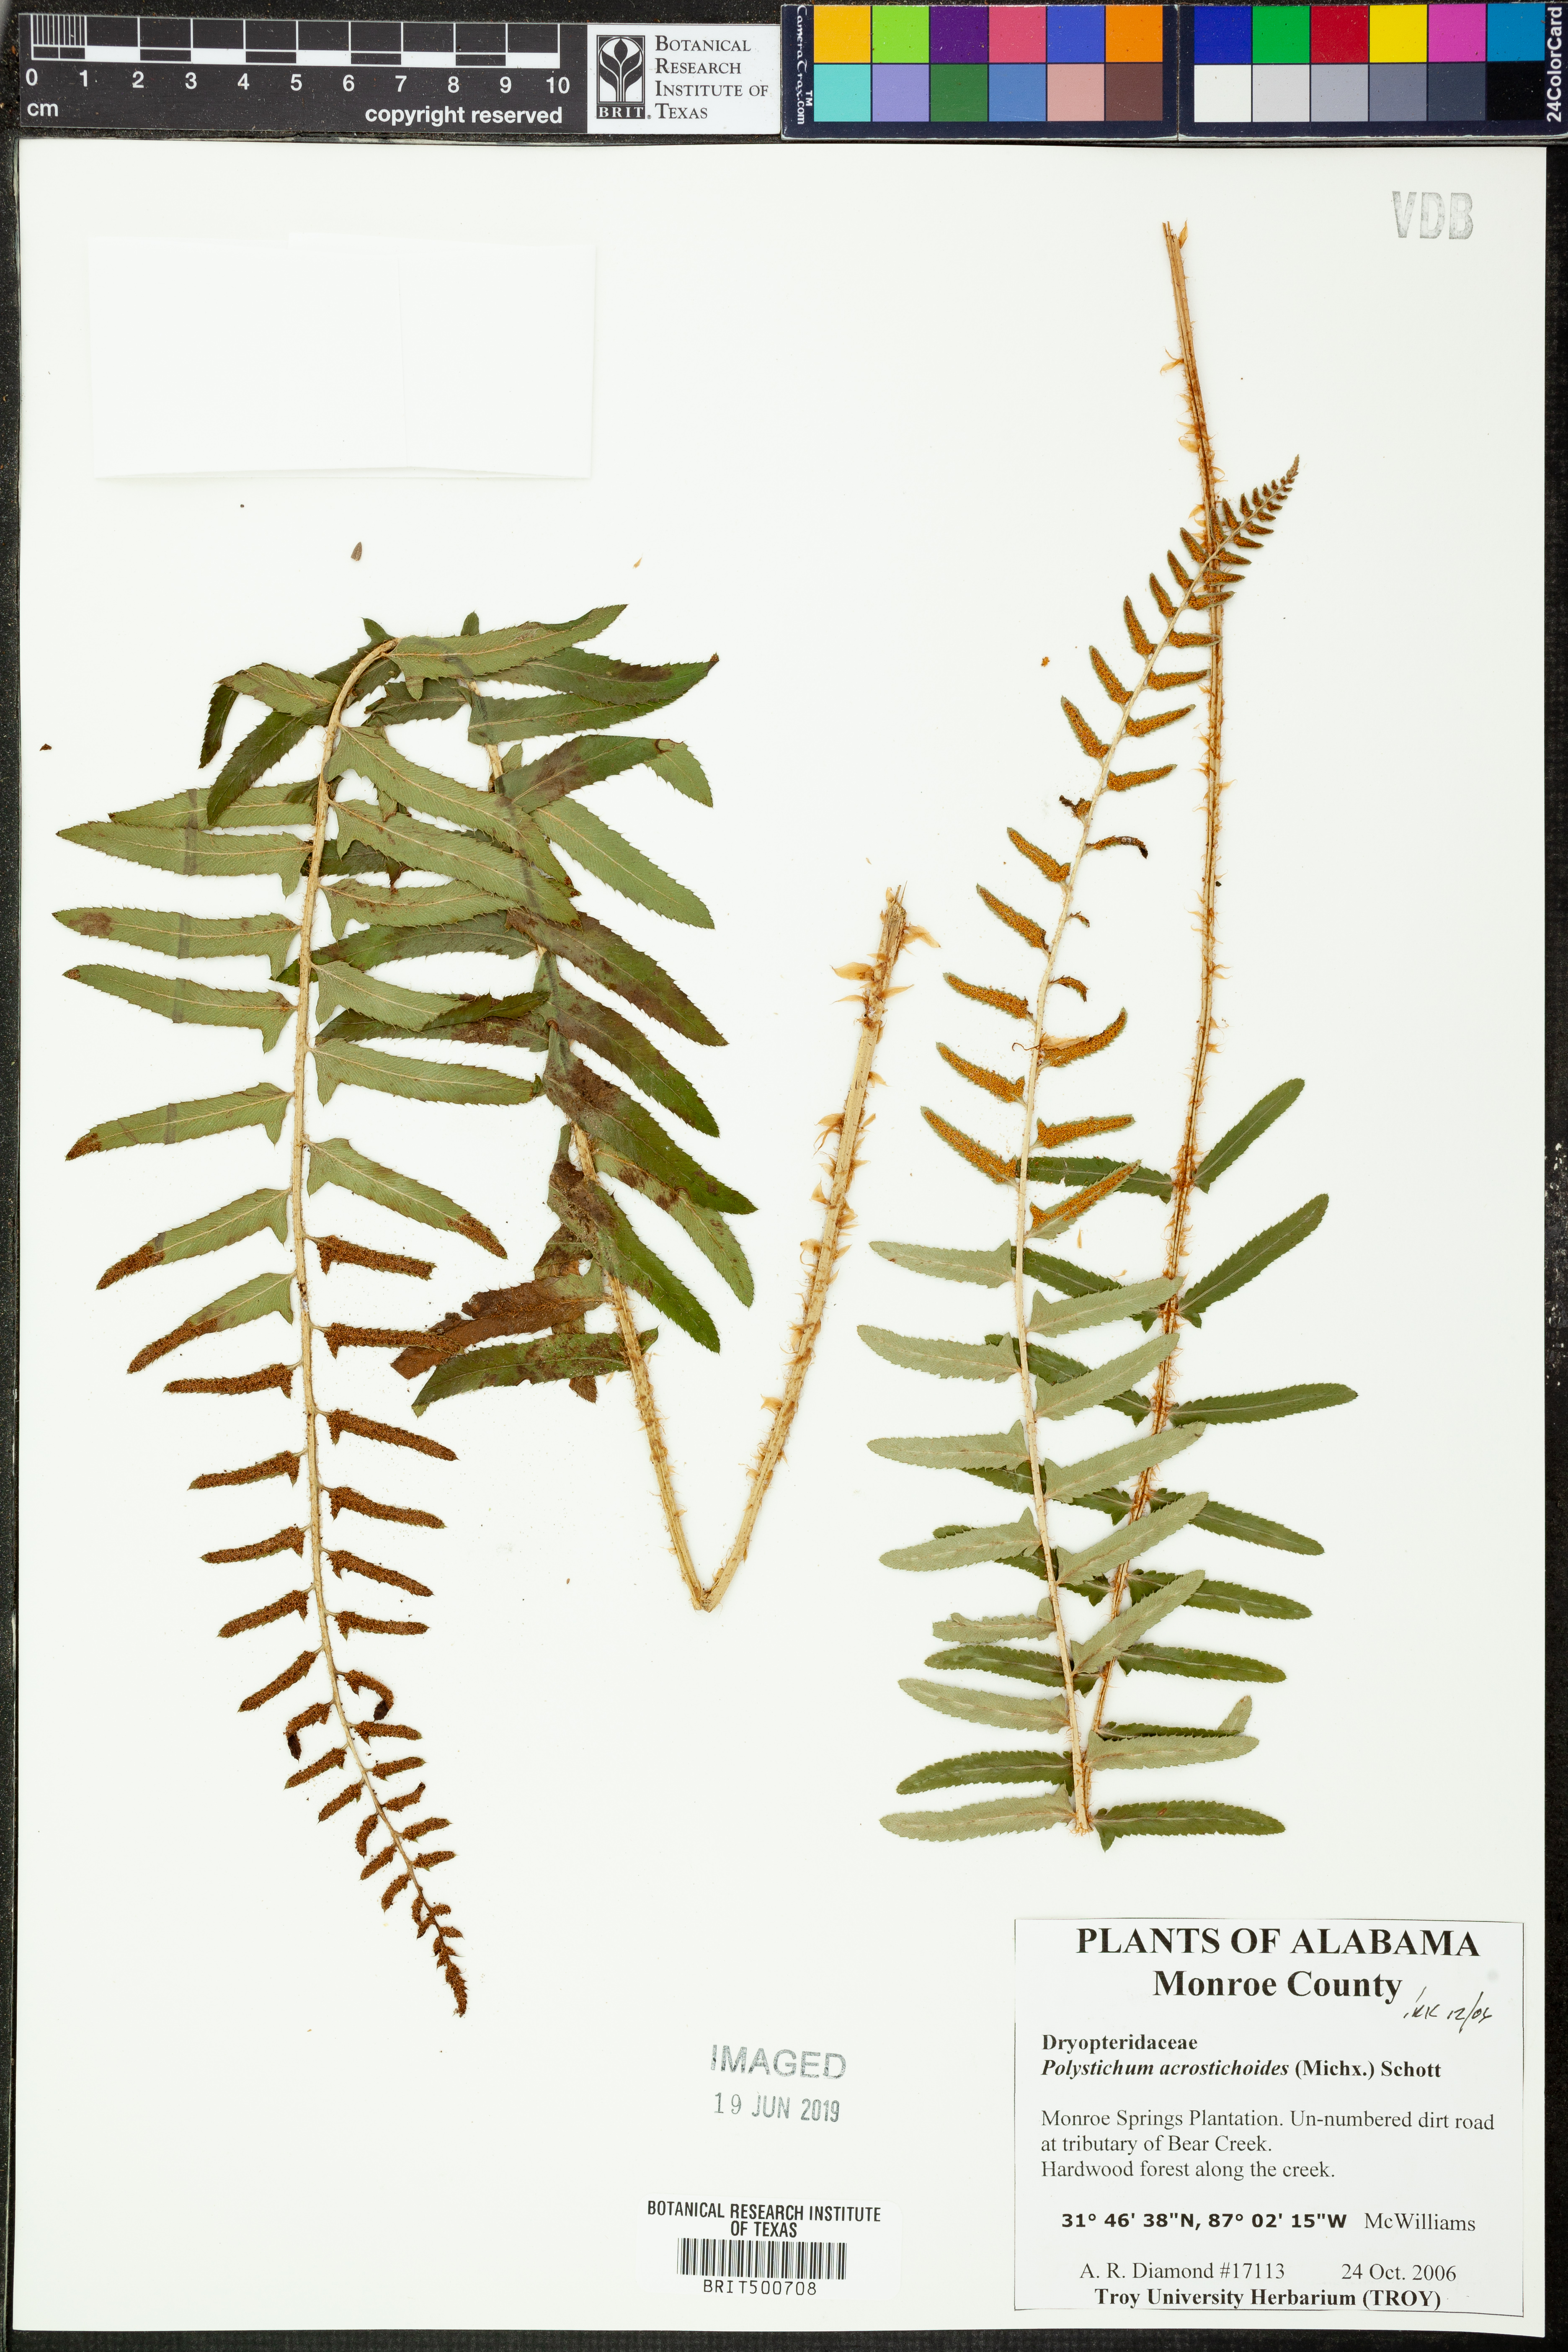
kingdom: Plantae
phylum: Tracheophyta
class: Polypodiopsida
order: Polypodiales
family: Dryopteridaceae
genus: Polystichum
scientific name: Polystichum acrostichoides
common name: Christmas fern
